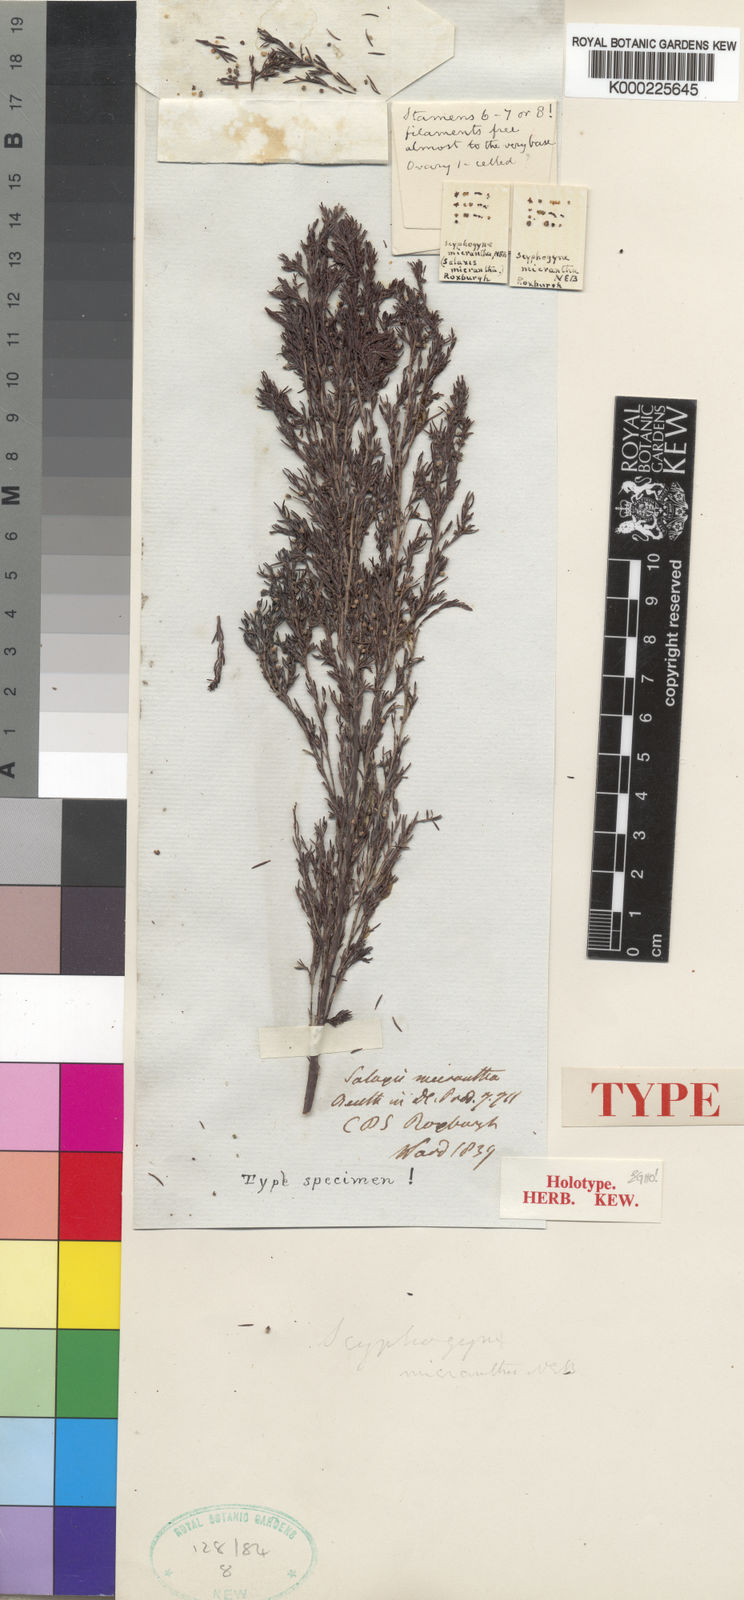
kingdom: Plantae
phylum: Tracheophyta
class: Magnoliopsida
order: Ericales
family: Ericaceae
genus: Erica
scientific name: Erica artemisioides
